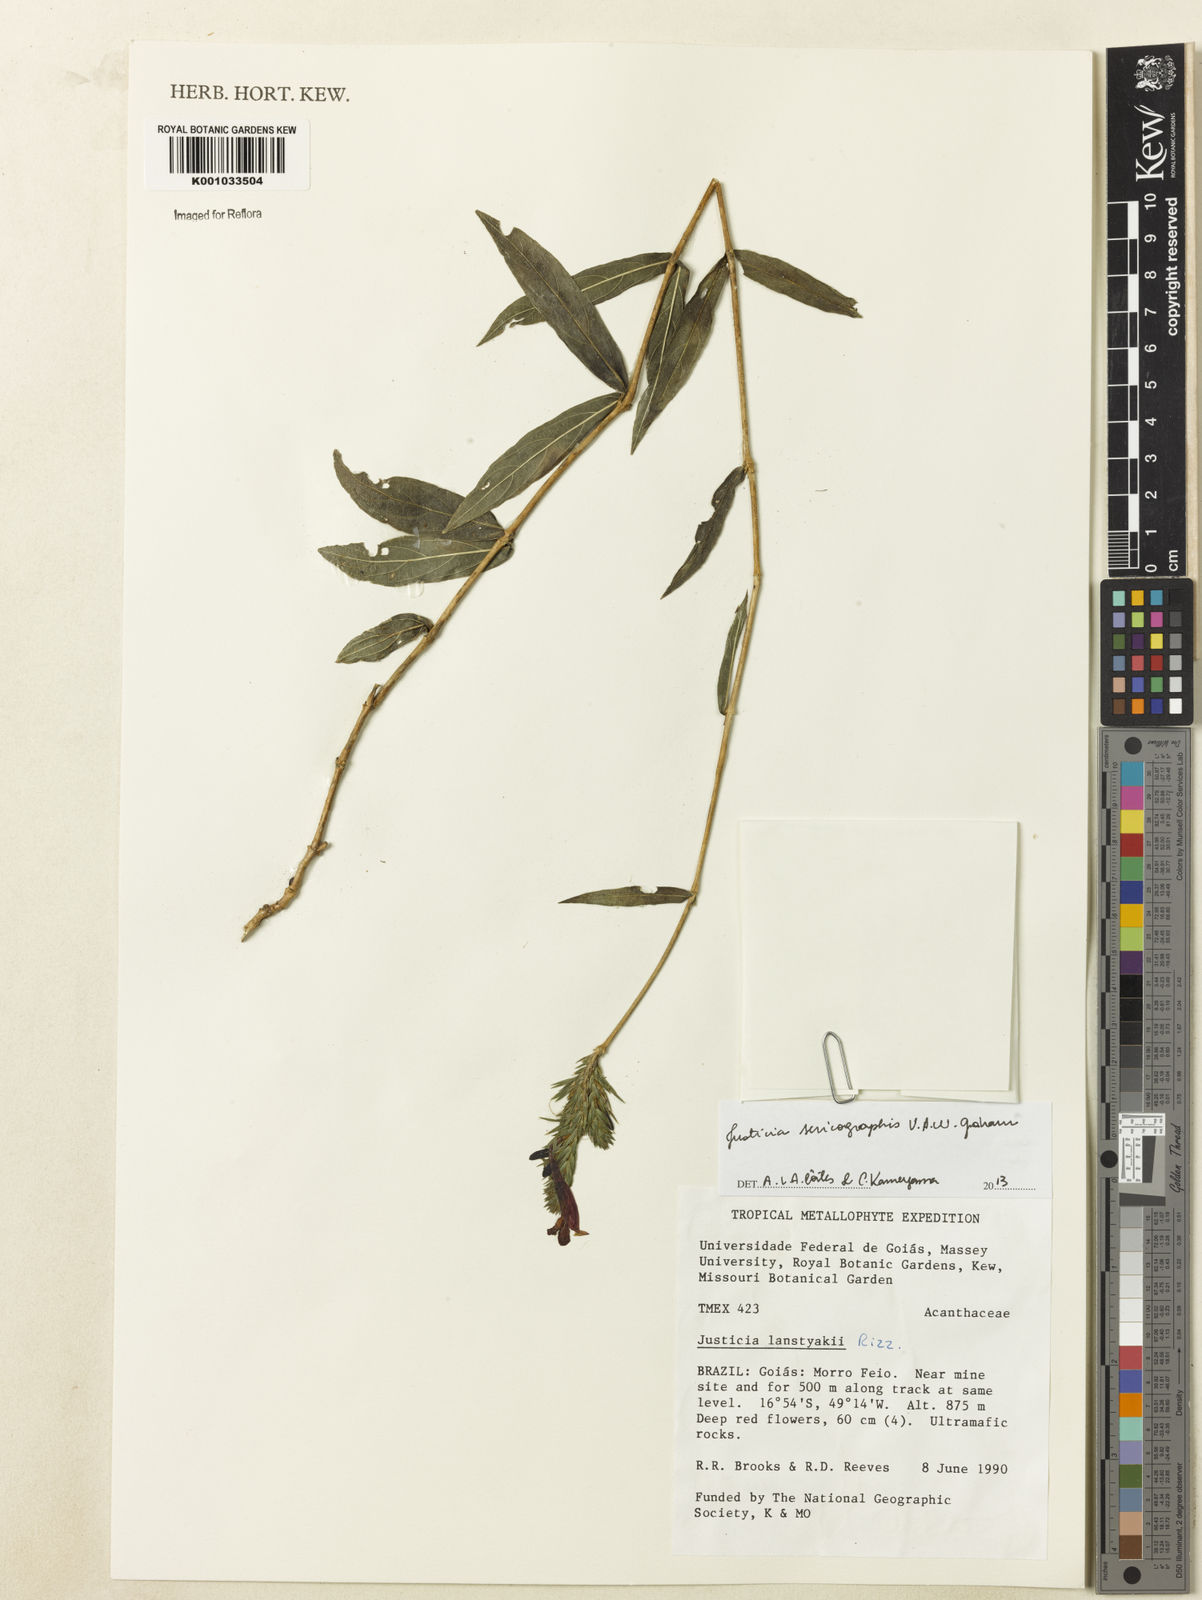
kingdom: Plantae
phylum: Tracheophyta
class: Magnoliopsida
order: Lamiales
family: Acanthaceae
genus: Dianthera
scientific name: Dianthera rigida
